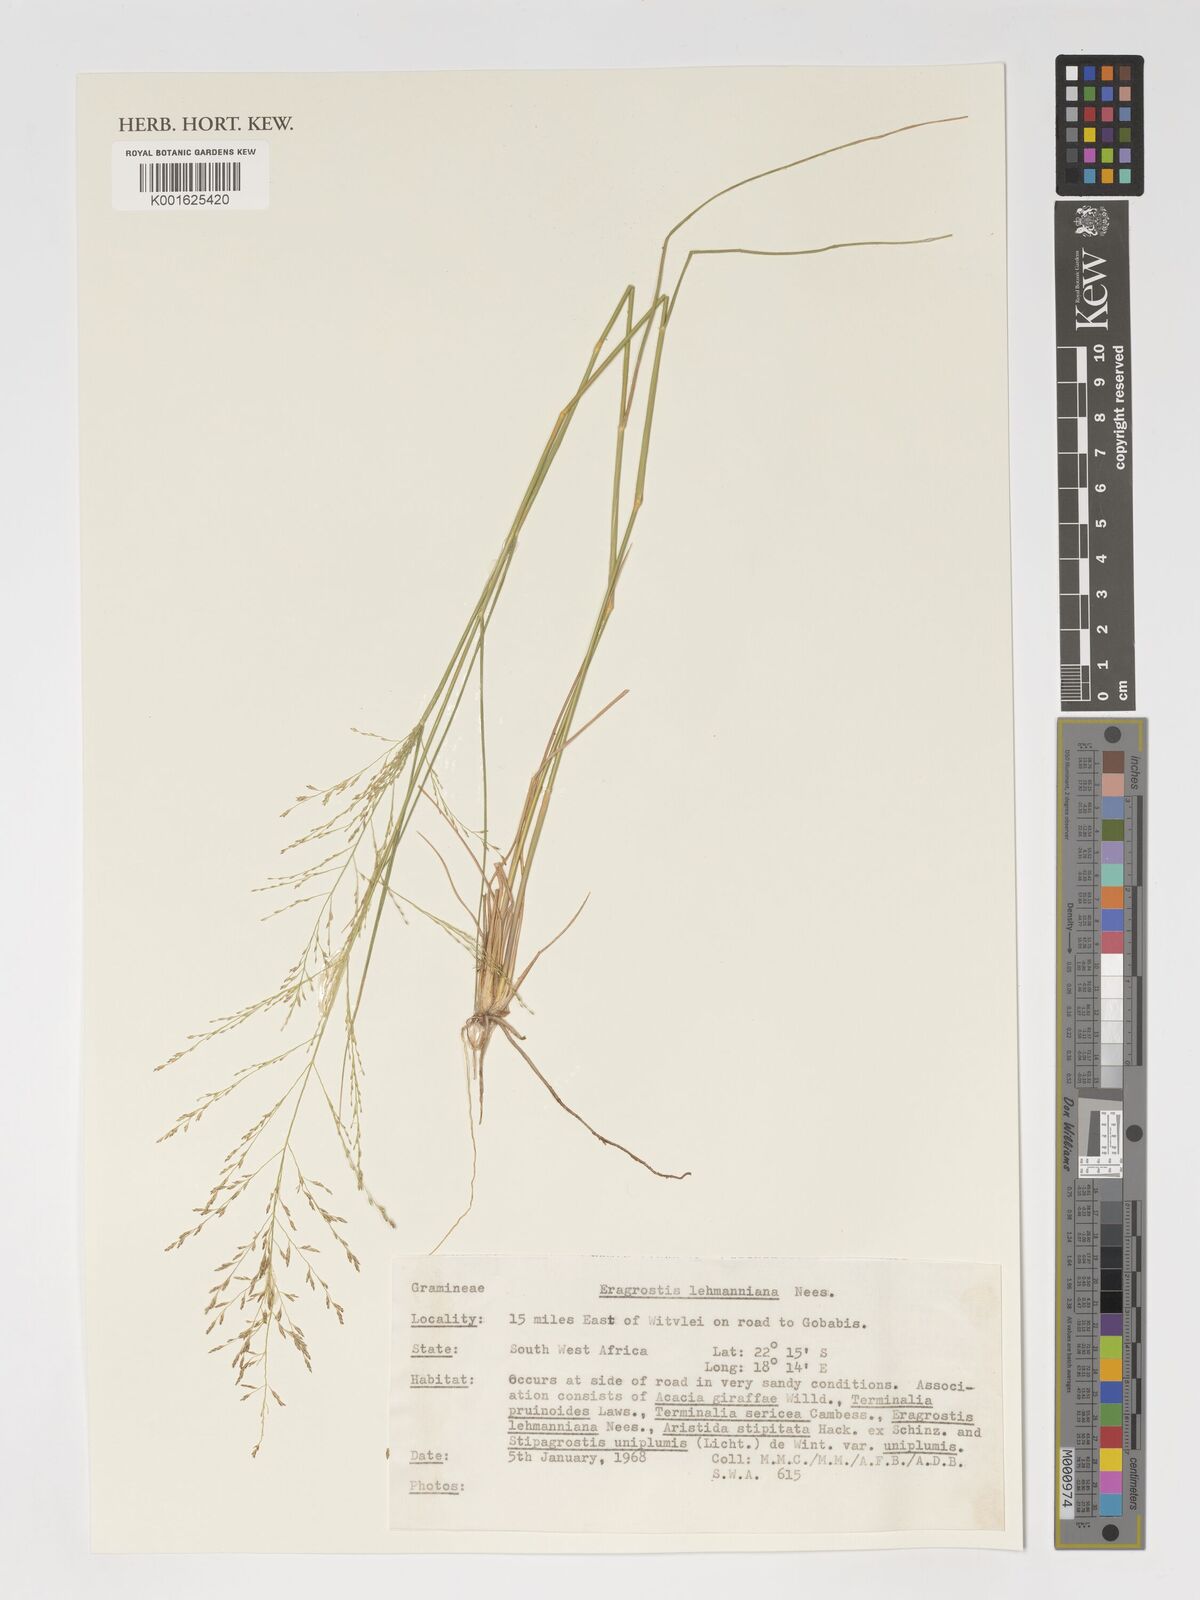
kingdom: Plantae
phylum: Tracheophyta
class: Liliopsida
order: Poales
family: Poaceae
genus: Eragrostis
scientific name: Eragrostis lehmanniana
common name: Lehmann lovegrass
